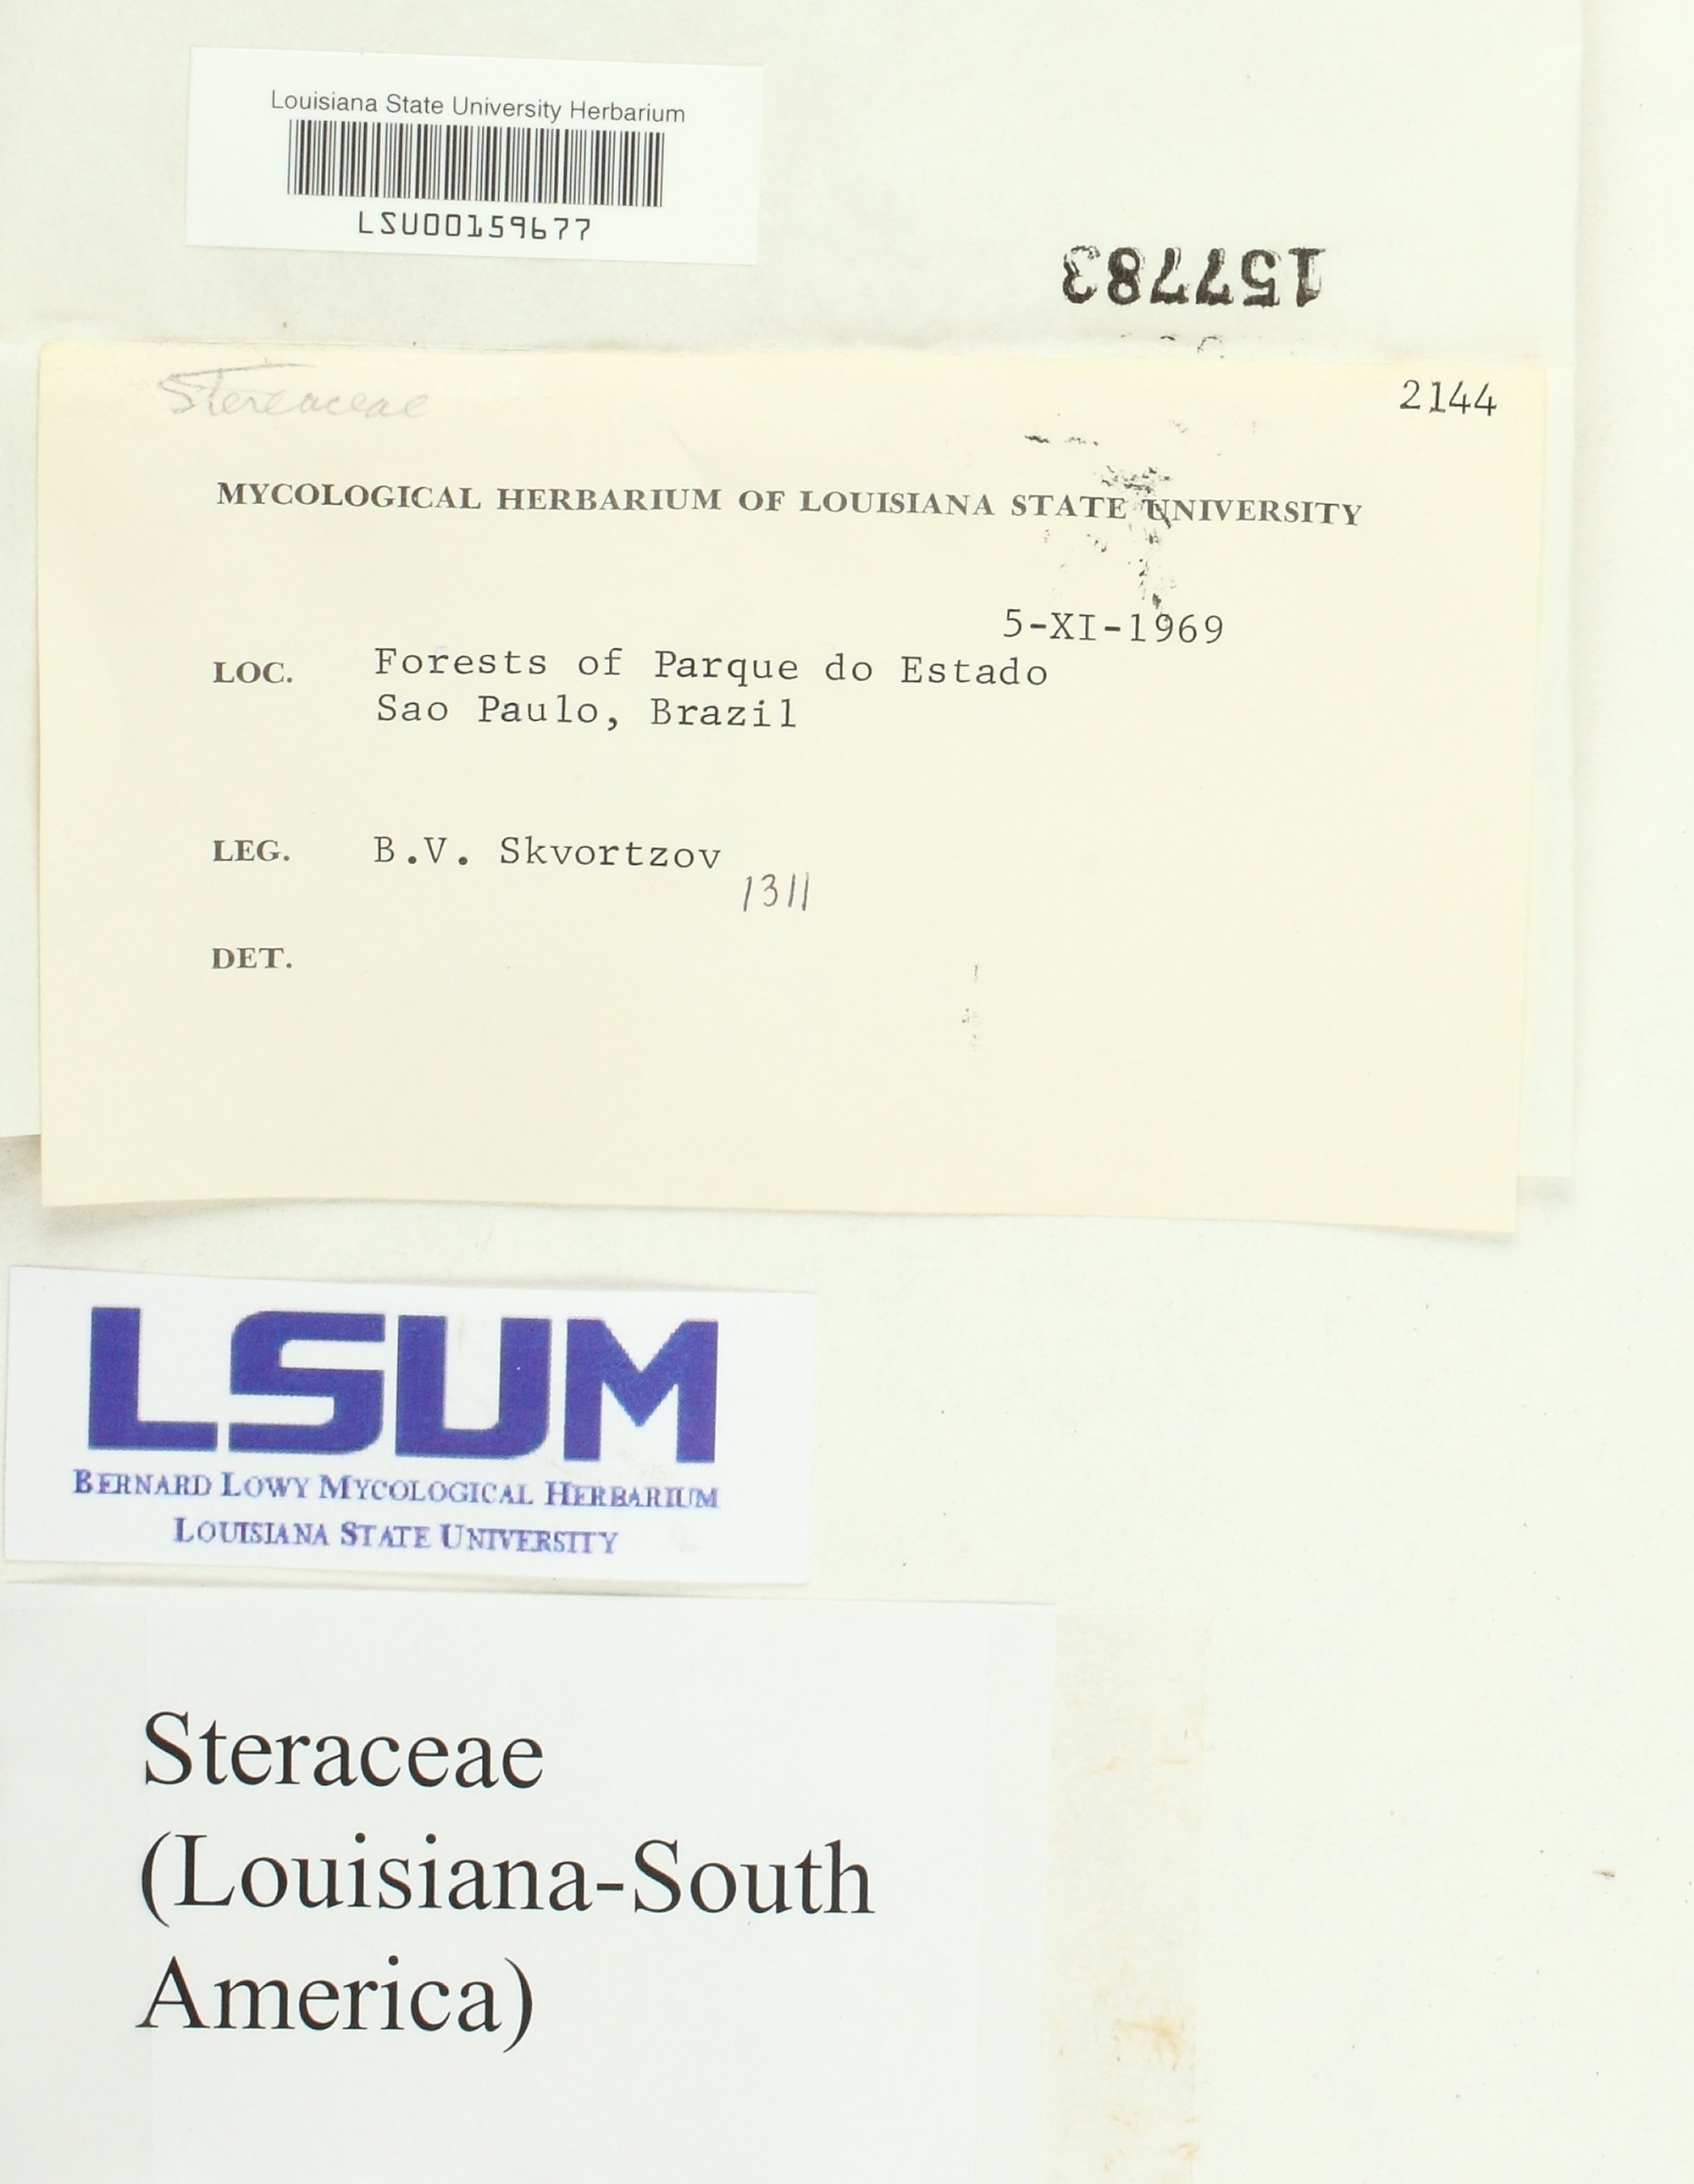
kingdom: Fungi
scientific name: Fungi
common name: Fungi
